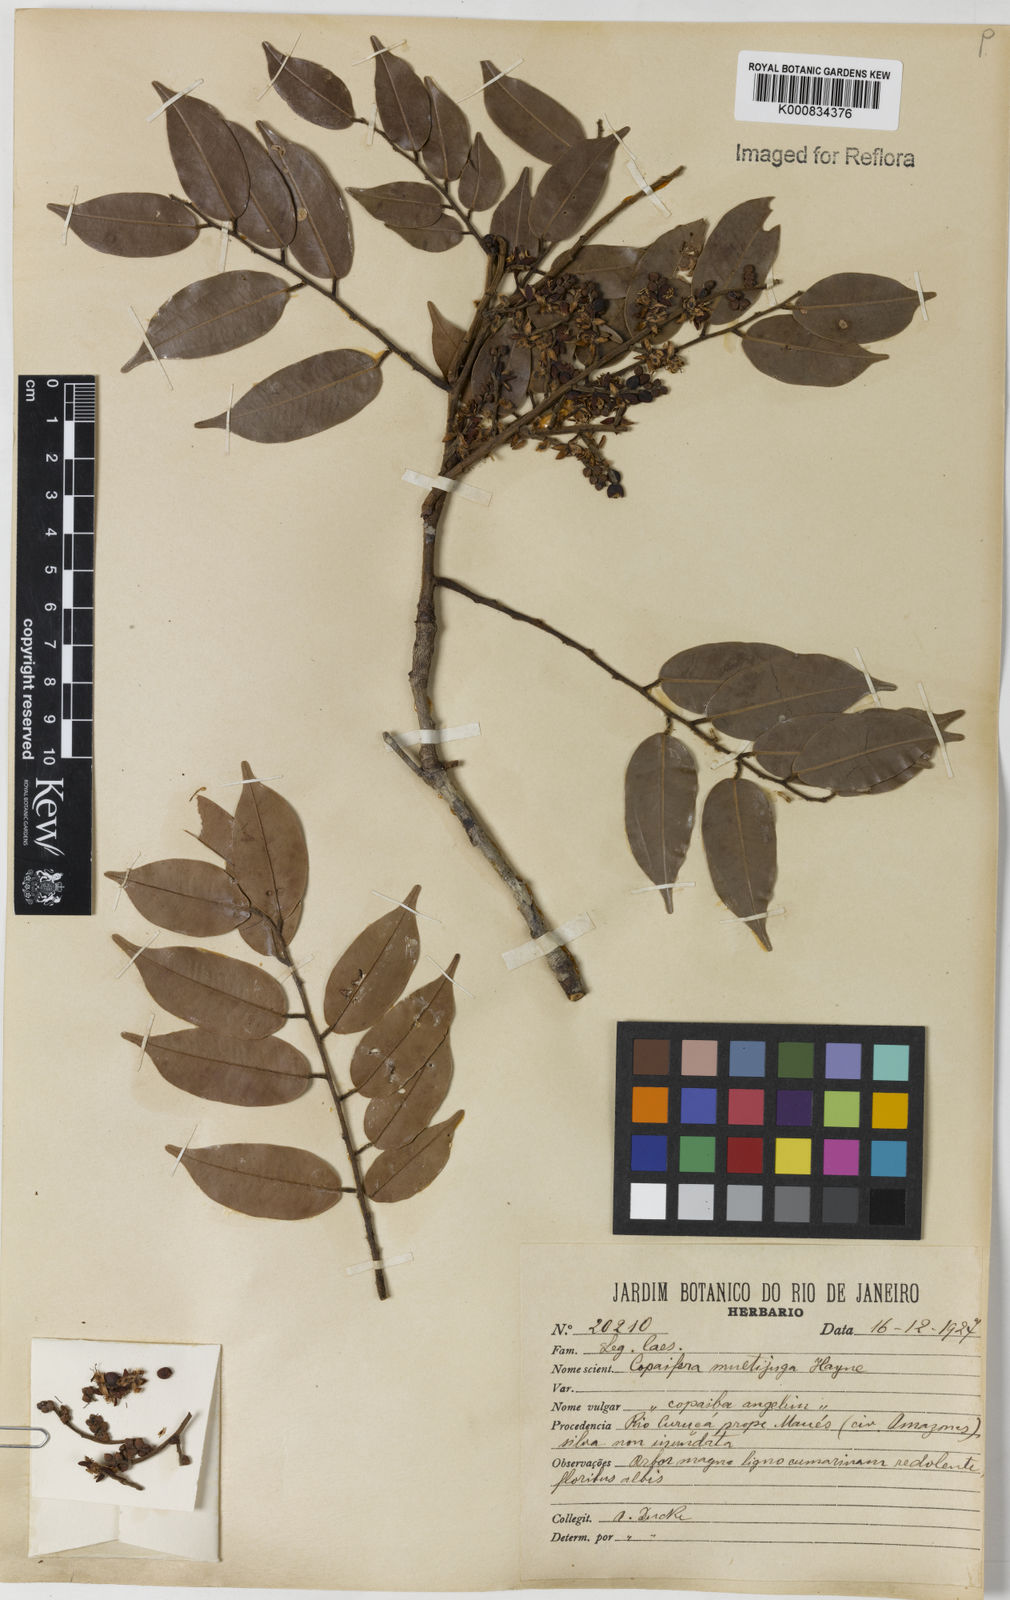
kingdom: Plantae
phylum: Tracheophyta
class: Magnoliopsida
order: Fabales
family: Fabaceae
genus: Copaifera
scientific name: Copaifera multijuga
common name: Brazilian copaiba
